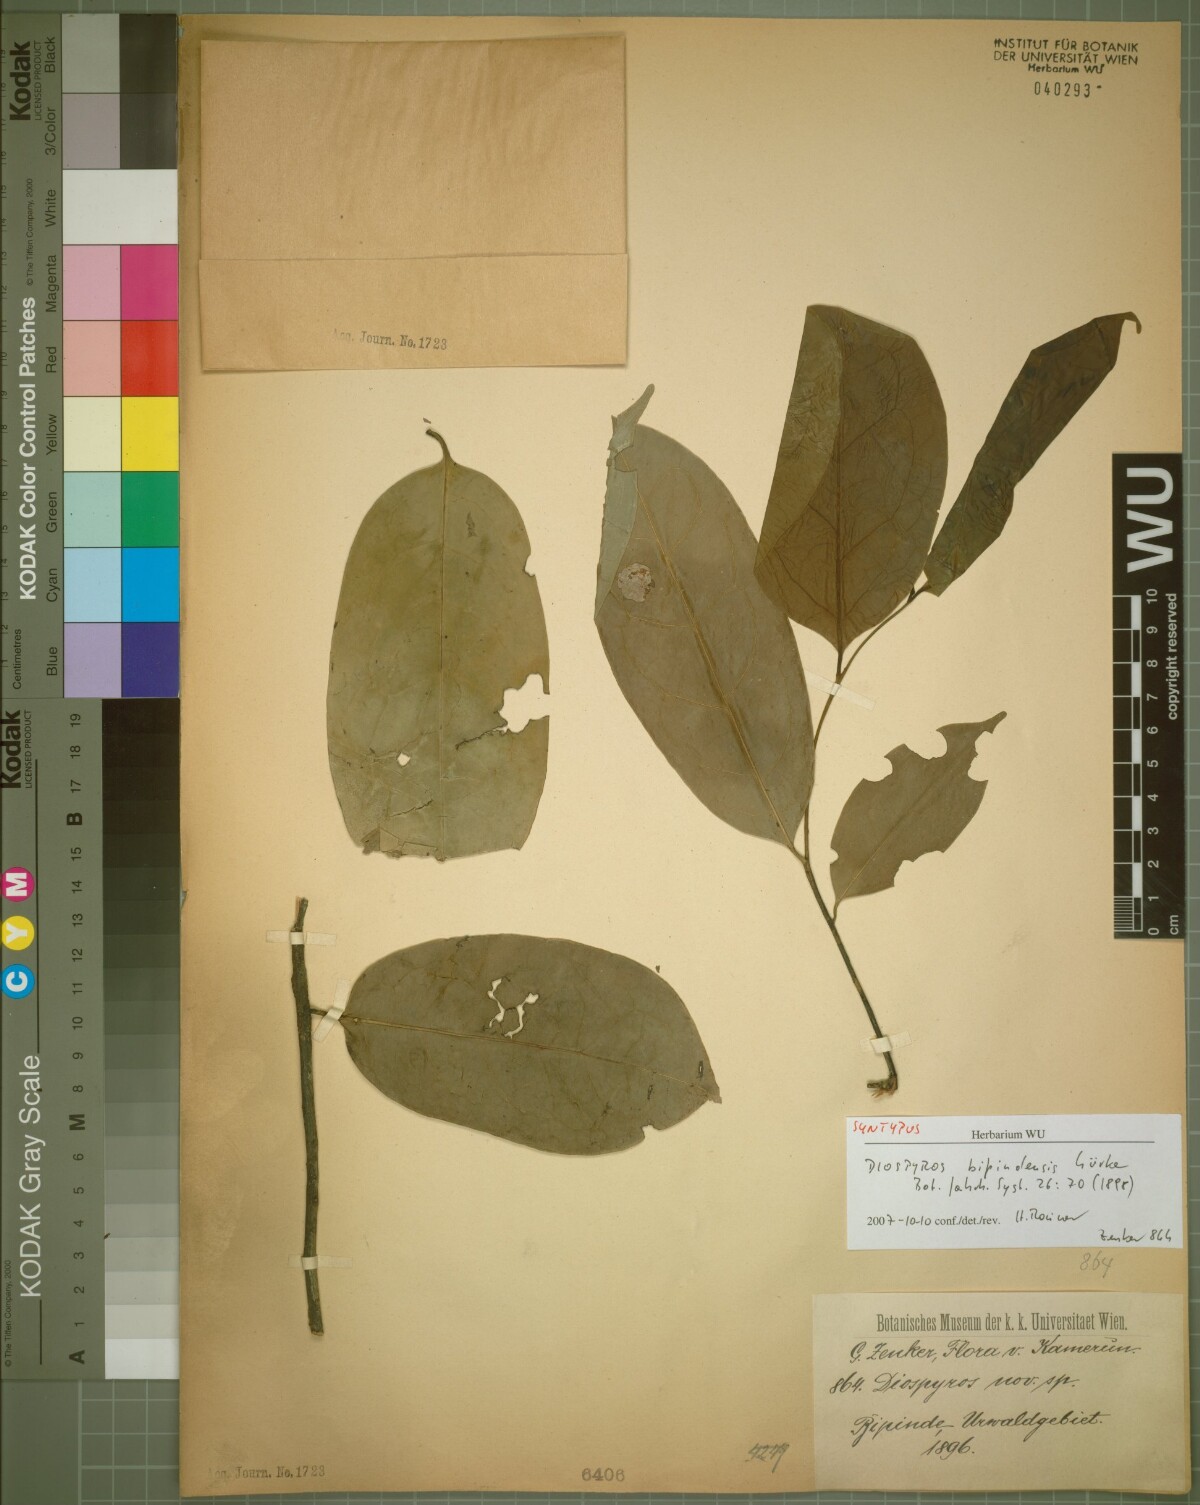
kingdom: Plantae
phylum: Tracheophyta
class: Magnoliopsida
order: Ericales
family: Ebenaceae
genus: Diospyros
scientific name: Diospyros bipindensis
